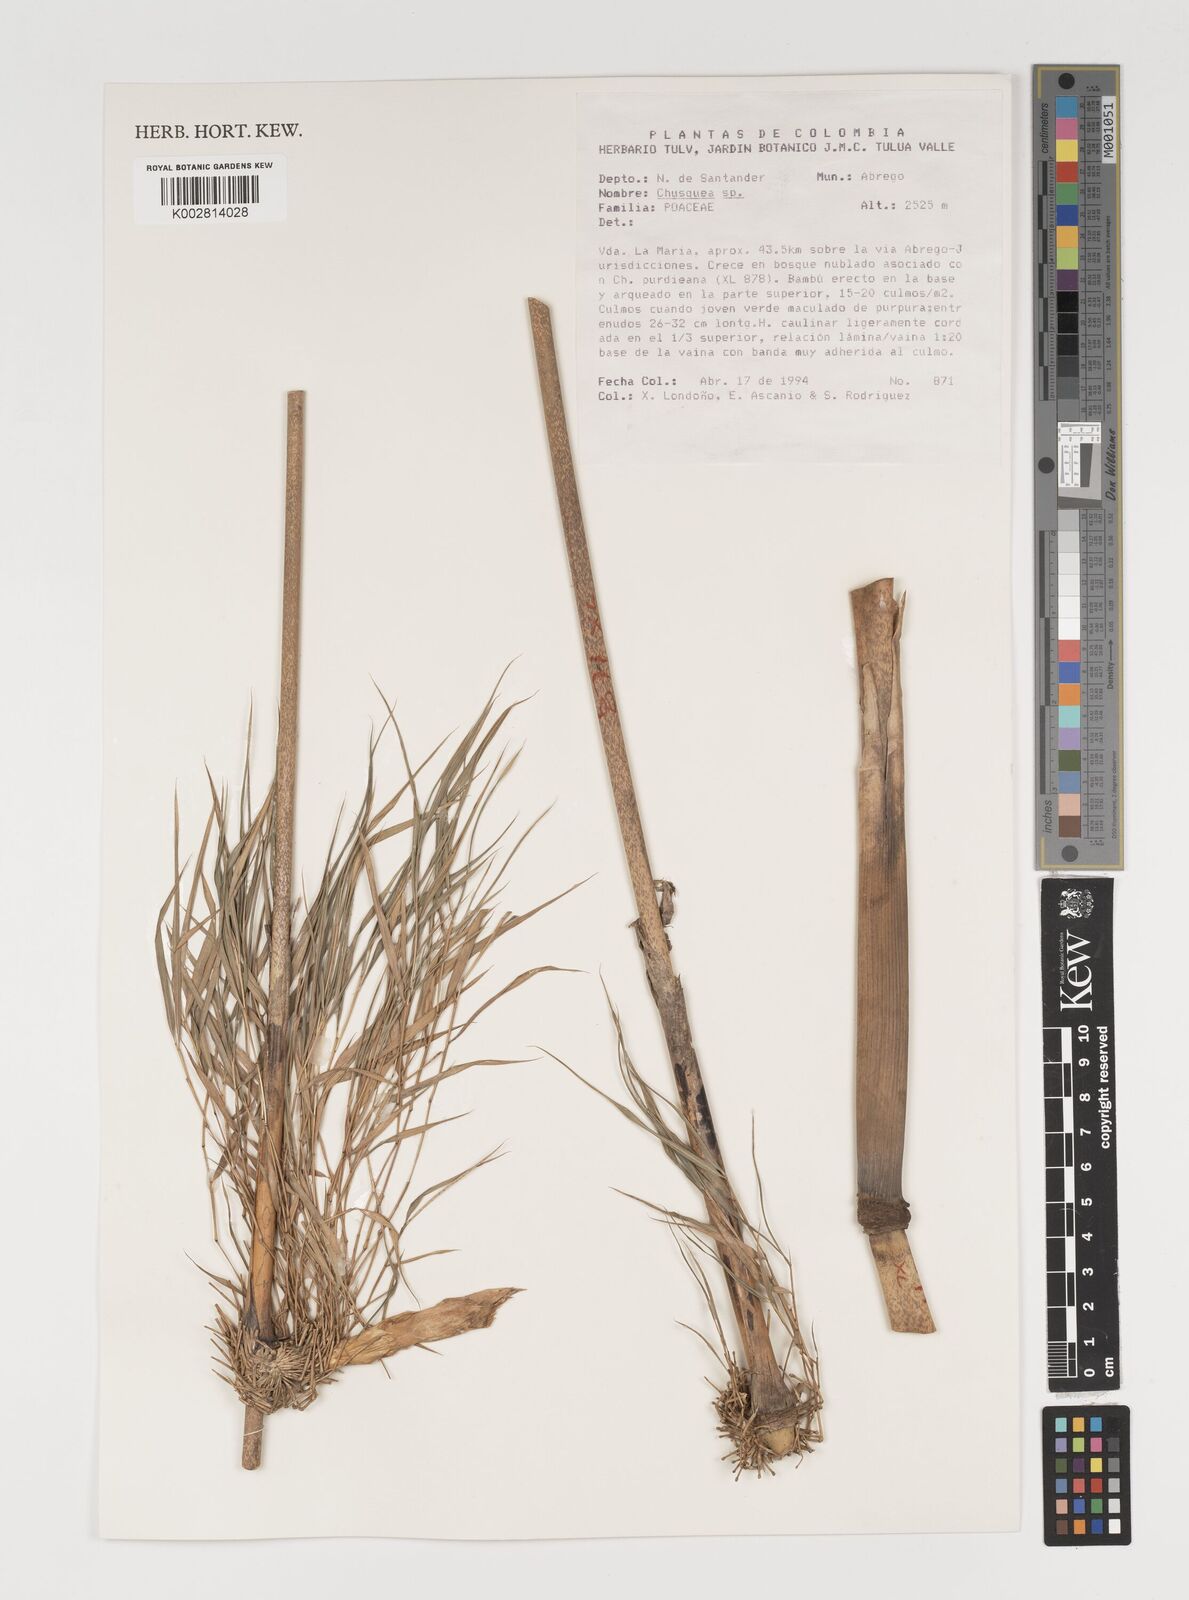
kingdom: Plantae
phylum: Tracheophyta
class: Liliopsida
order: Poales
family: Poaceae
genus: Chusquea
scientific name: Chusquea
